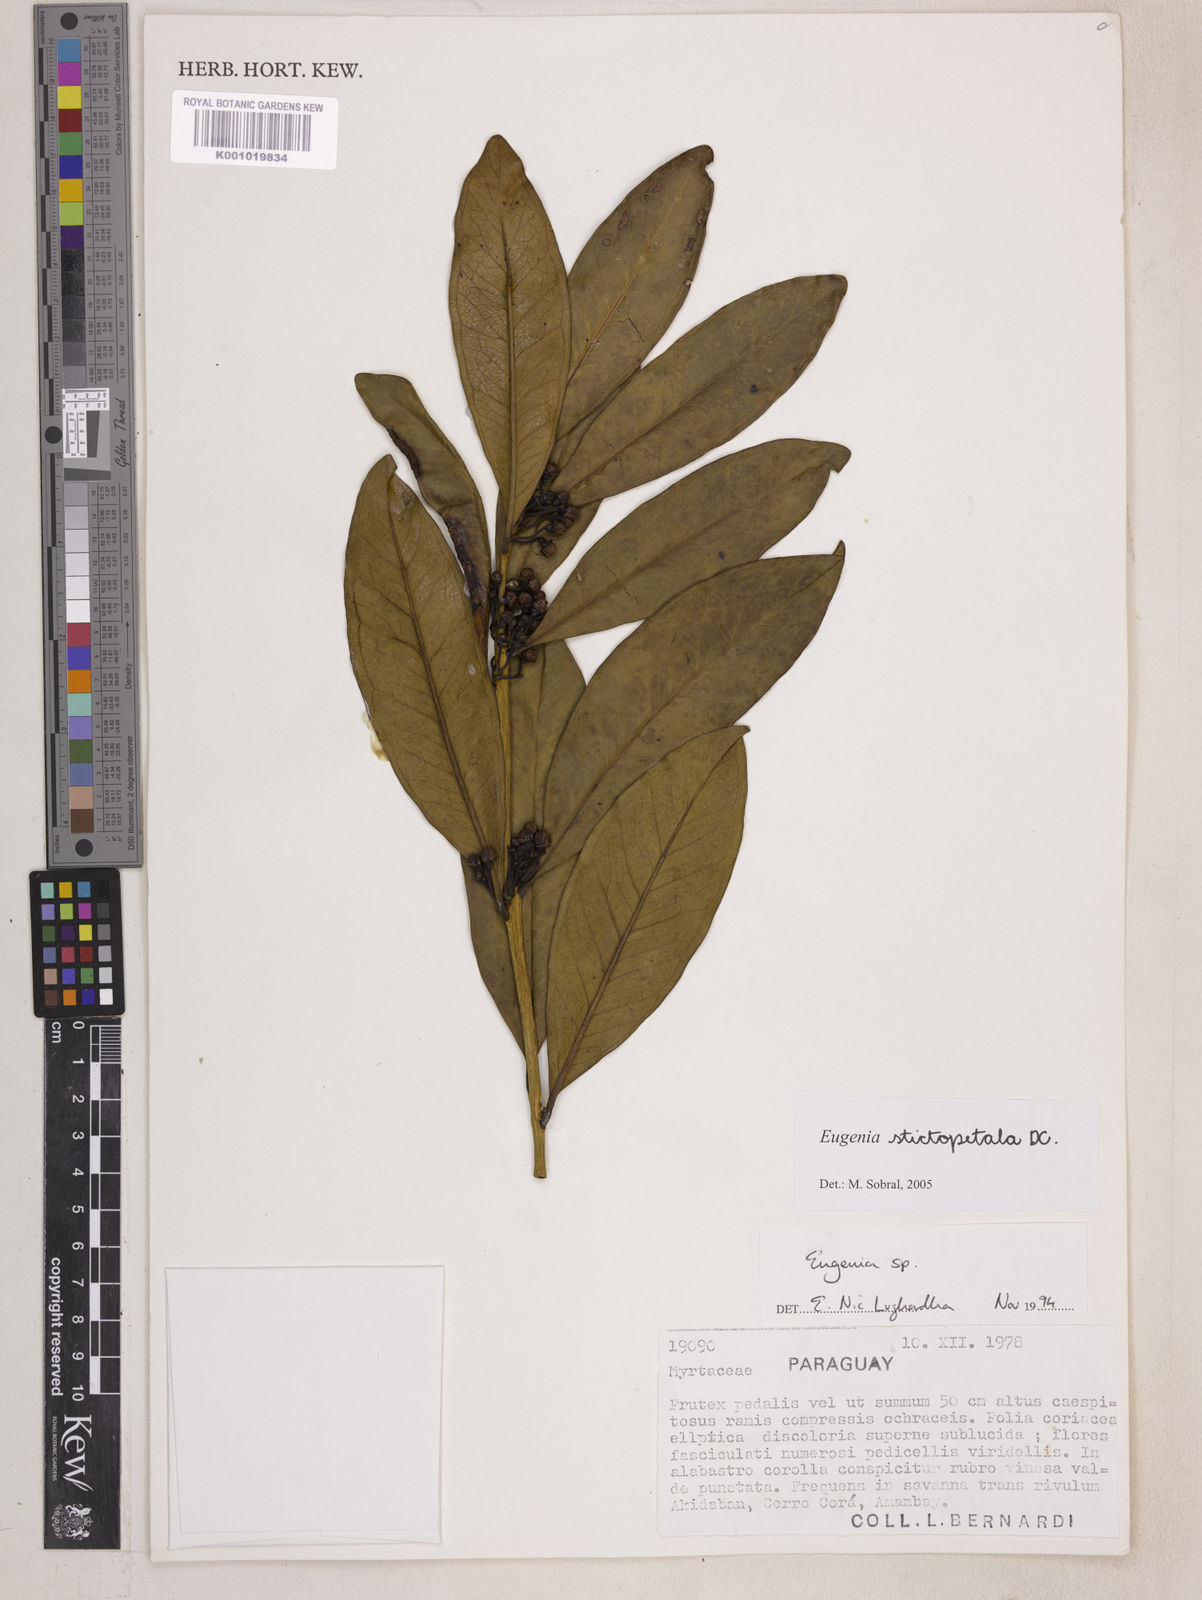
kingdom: Plantae
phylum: Tracheophyta
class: Magnoliopsida
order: Myrtales
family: Myrtaceae
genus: Eugenia
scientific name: Eugenia stictopetala
